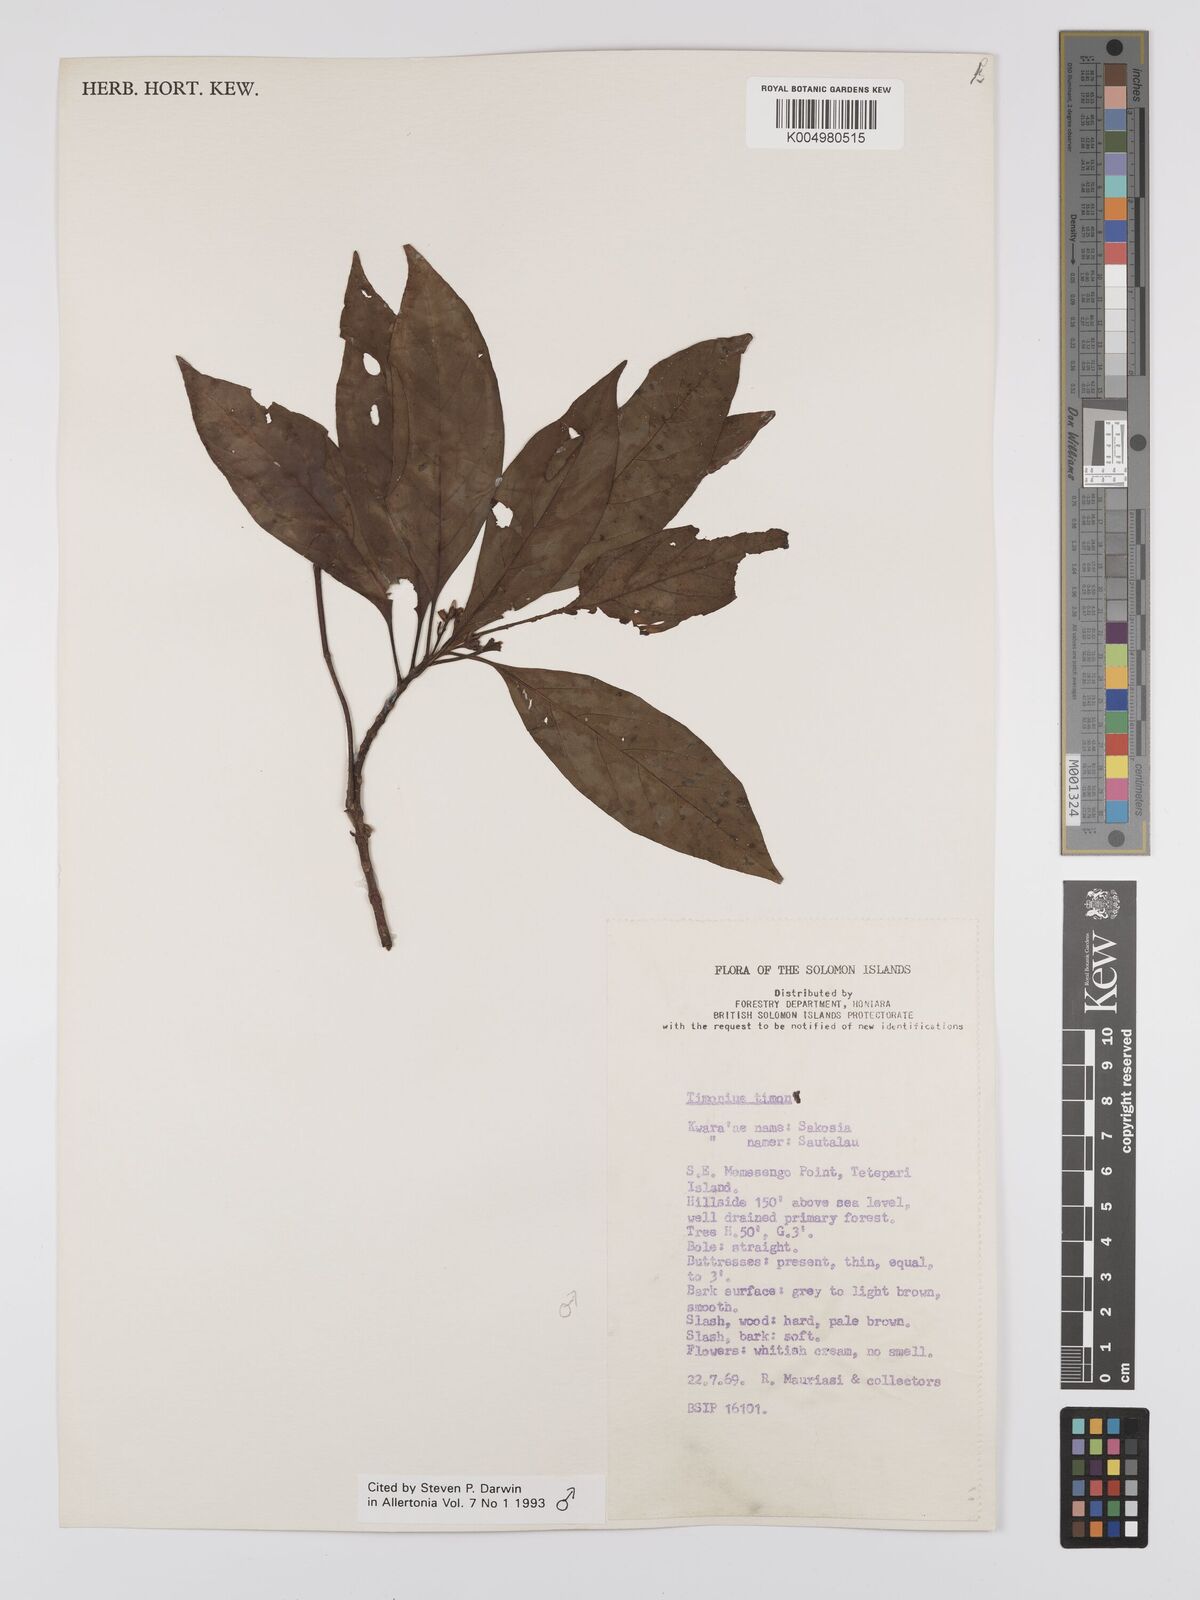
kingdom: Plantae
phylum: Tracheophyta
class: Magnoliopsida
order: Gentianales
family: Rubiaceae
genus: Timonius
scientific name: Timonius timon
